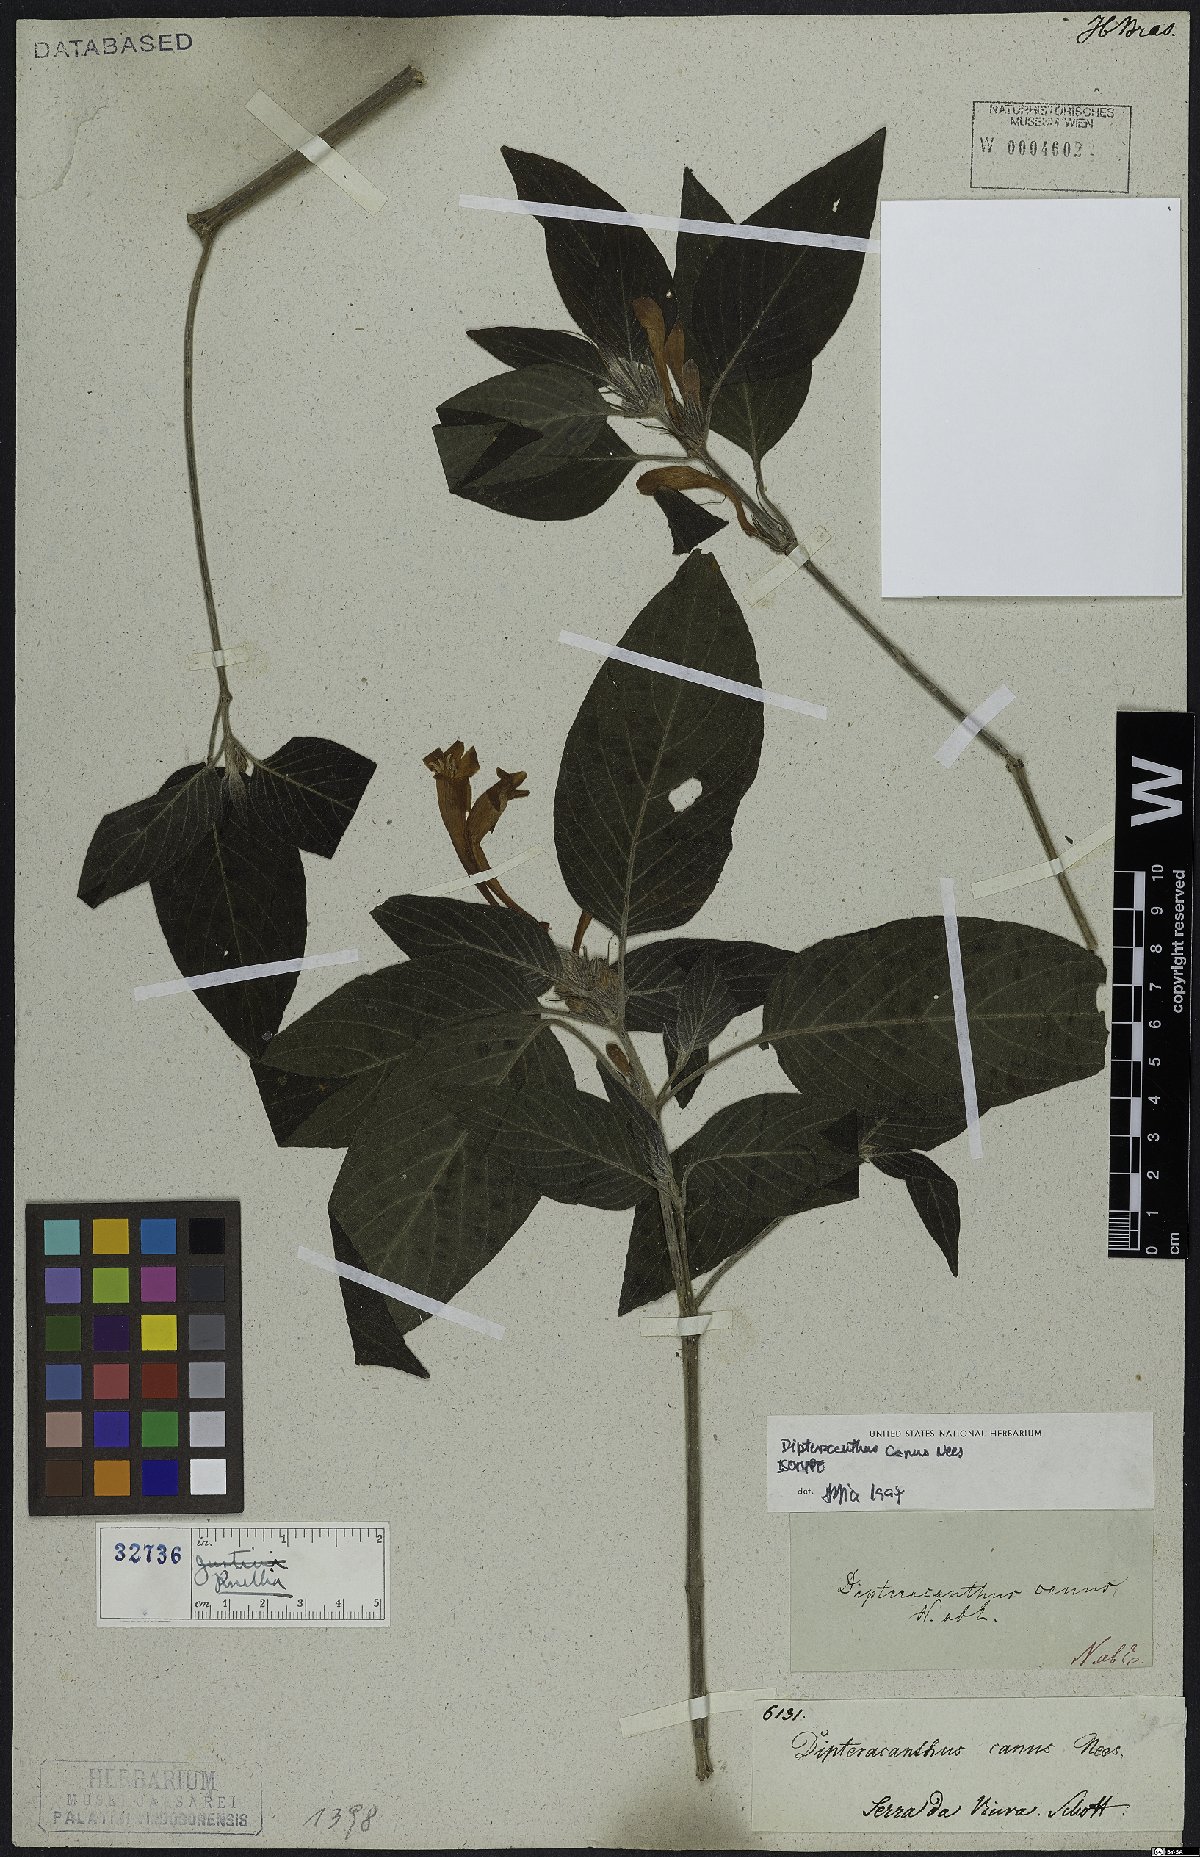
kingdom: Plantae
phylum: Tracheophyta
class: Magnoliopsida
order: Lamiales
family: Acanthaceae
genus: Ruellia
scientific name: Ruellia Dipteracanthus canus
